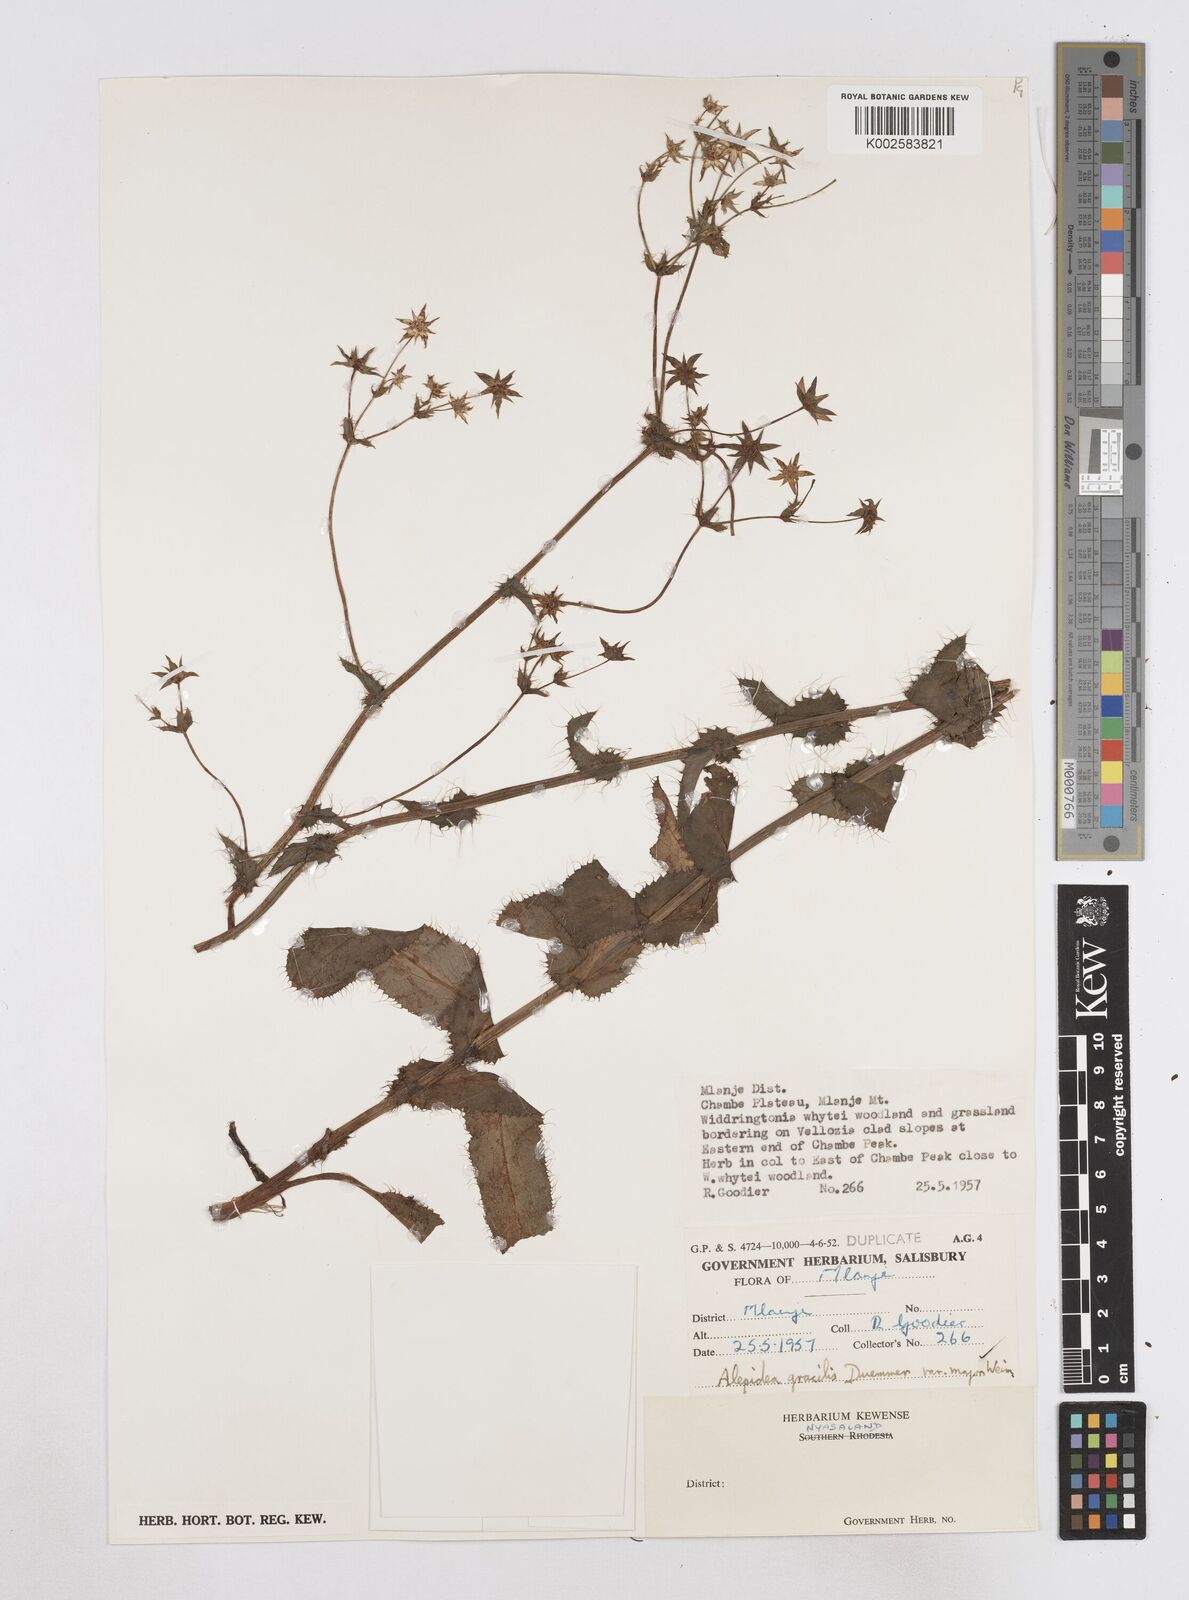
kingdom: Plantae
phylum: Tracheophyta
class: Magnoliopsida
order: Apiales
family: Apiaceae
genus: Alepidea
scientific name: Alepidea peduncularis
